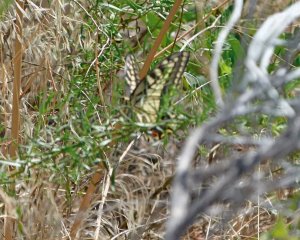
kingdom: Animalia
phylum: Arthropoda
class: Insecta
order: Lepidoptera
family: Papilionidae
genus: Papilio
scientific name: Papilio machaon
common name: Old World Swallowtail
